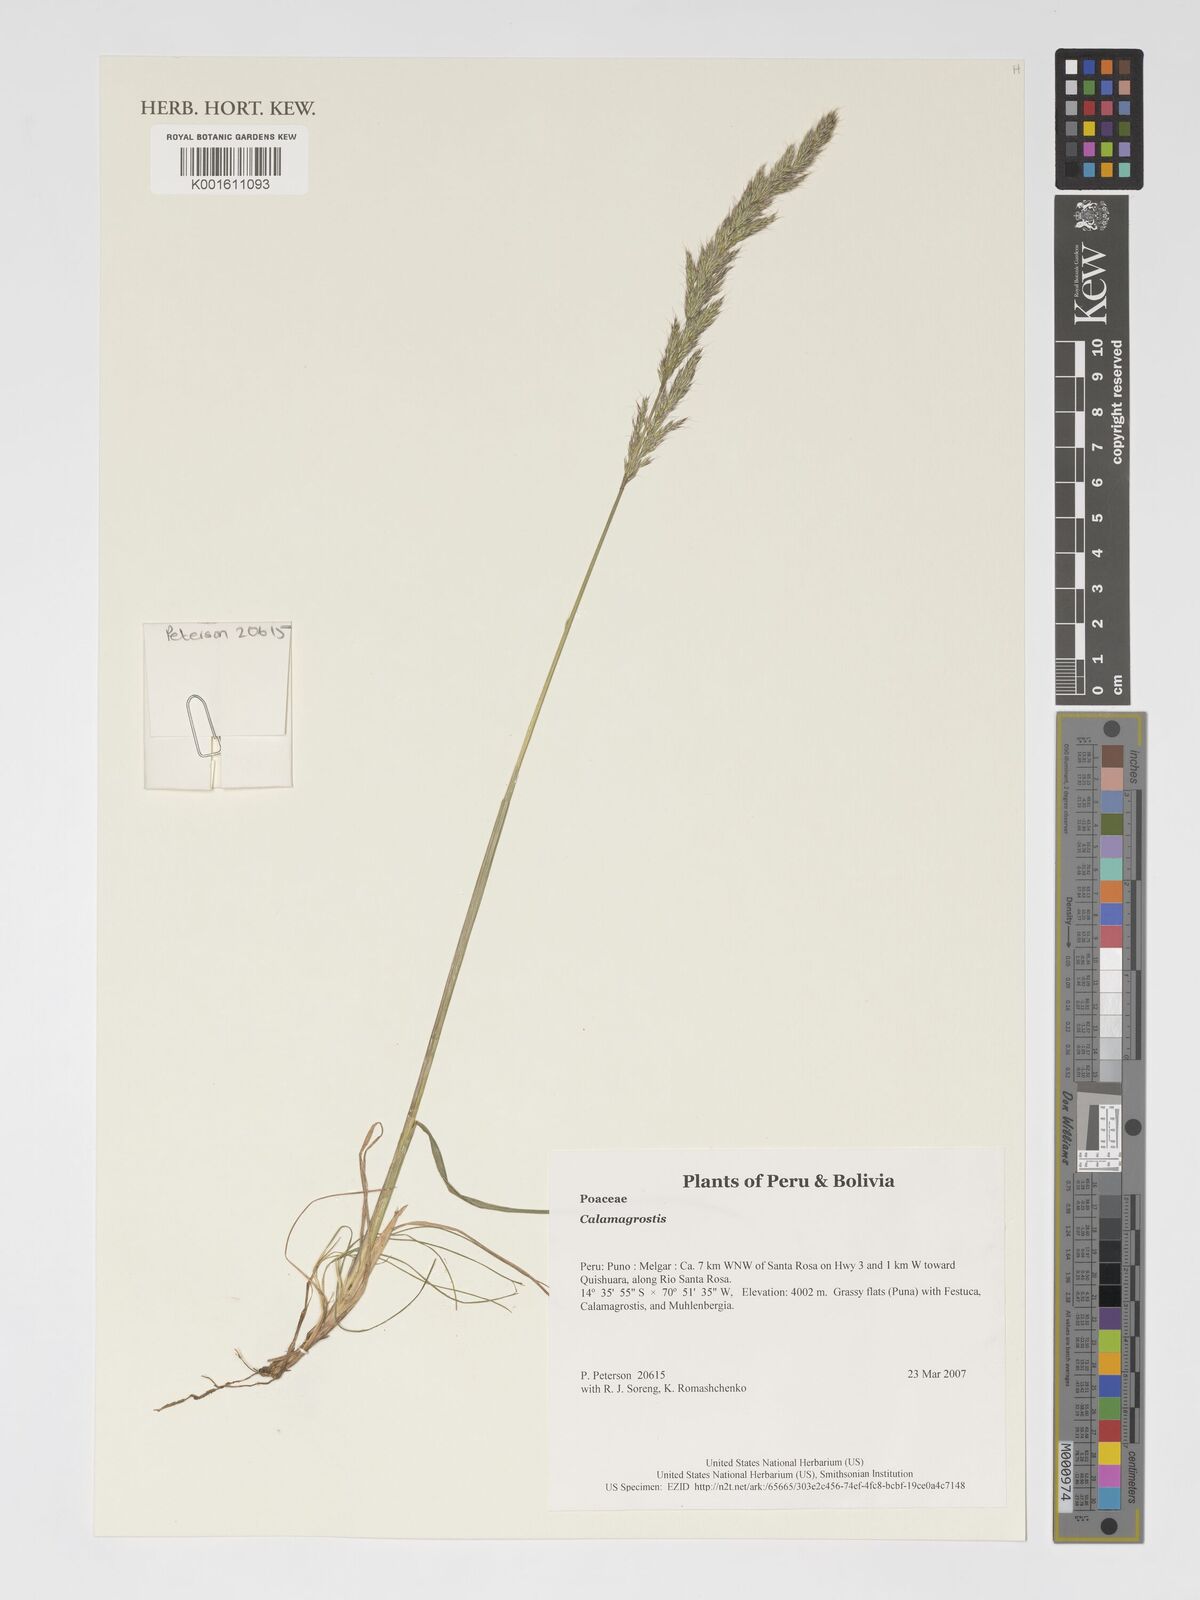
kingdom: Plantae
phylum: Tracheophyta
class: Liliopsida
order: Poales
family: Poaceae
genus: Calamagrostis
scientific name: Calamagrostis
